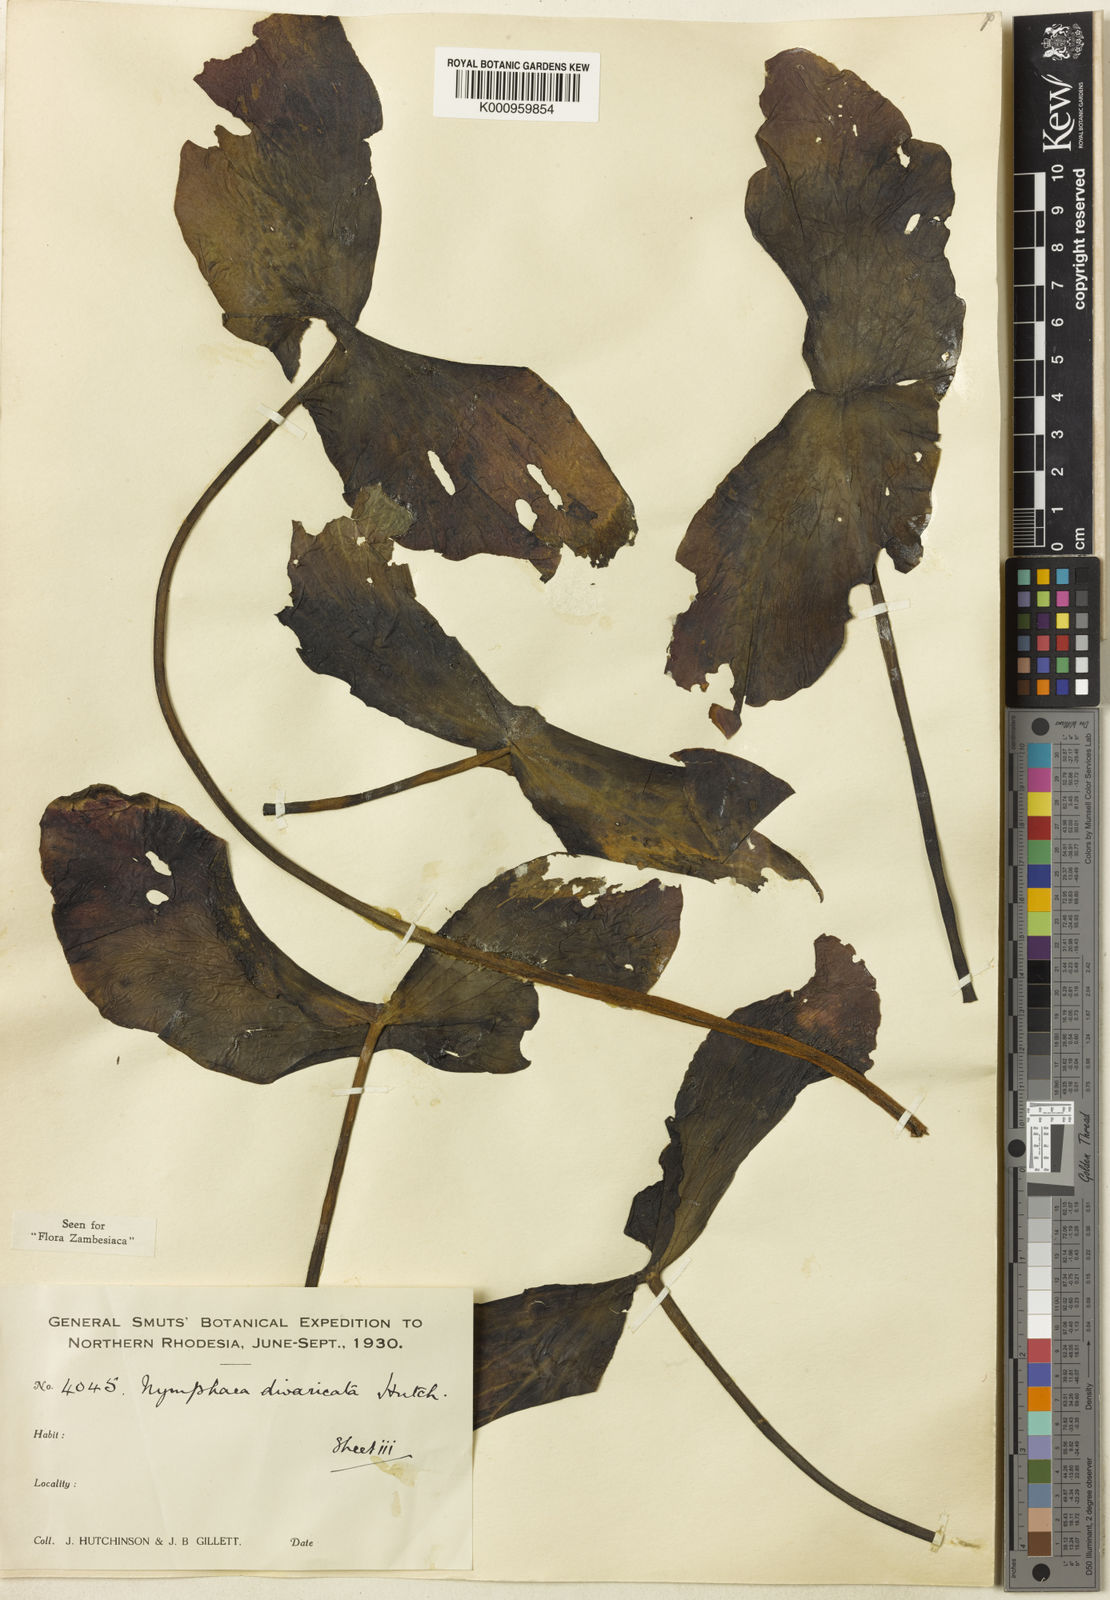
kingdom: Plantae
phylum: Tracheophyta
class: Magnoliopsida
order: Nymphaeales
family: Nymphaeaceae
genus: Nymphaea
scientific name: Nymphaea divaricata
